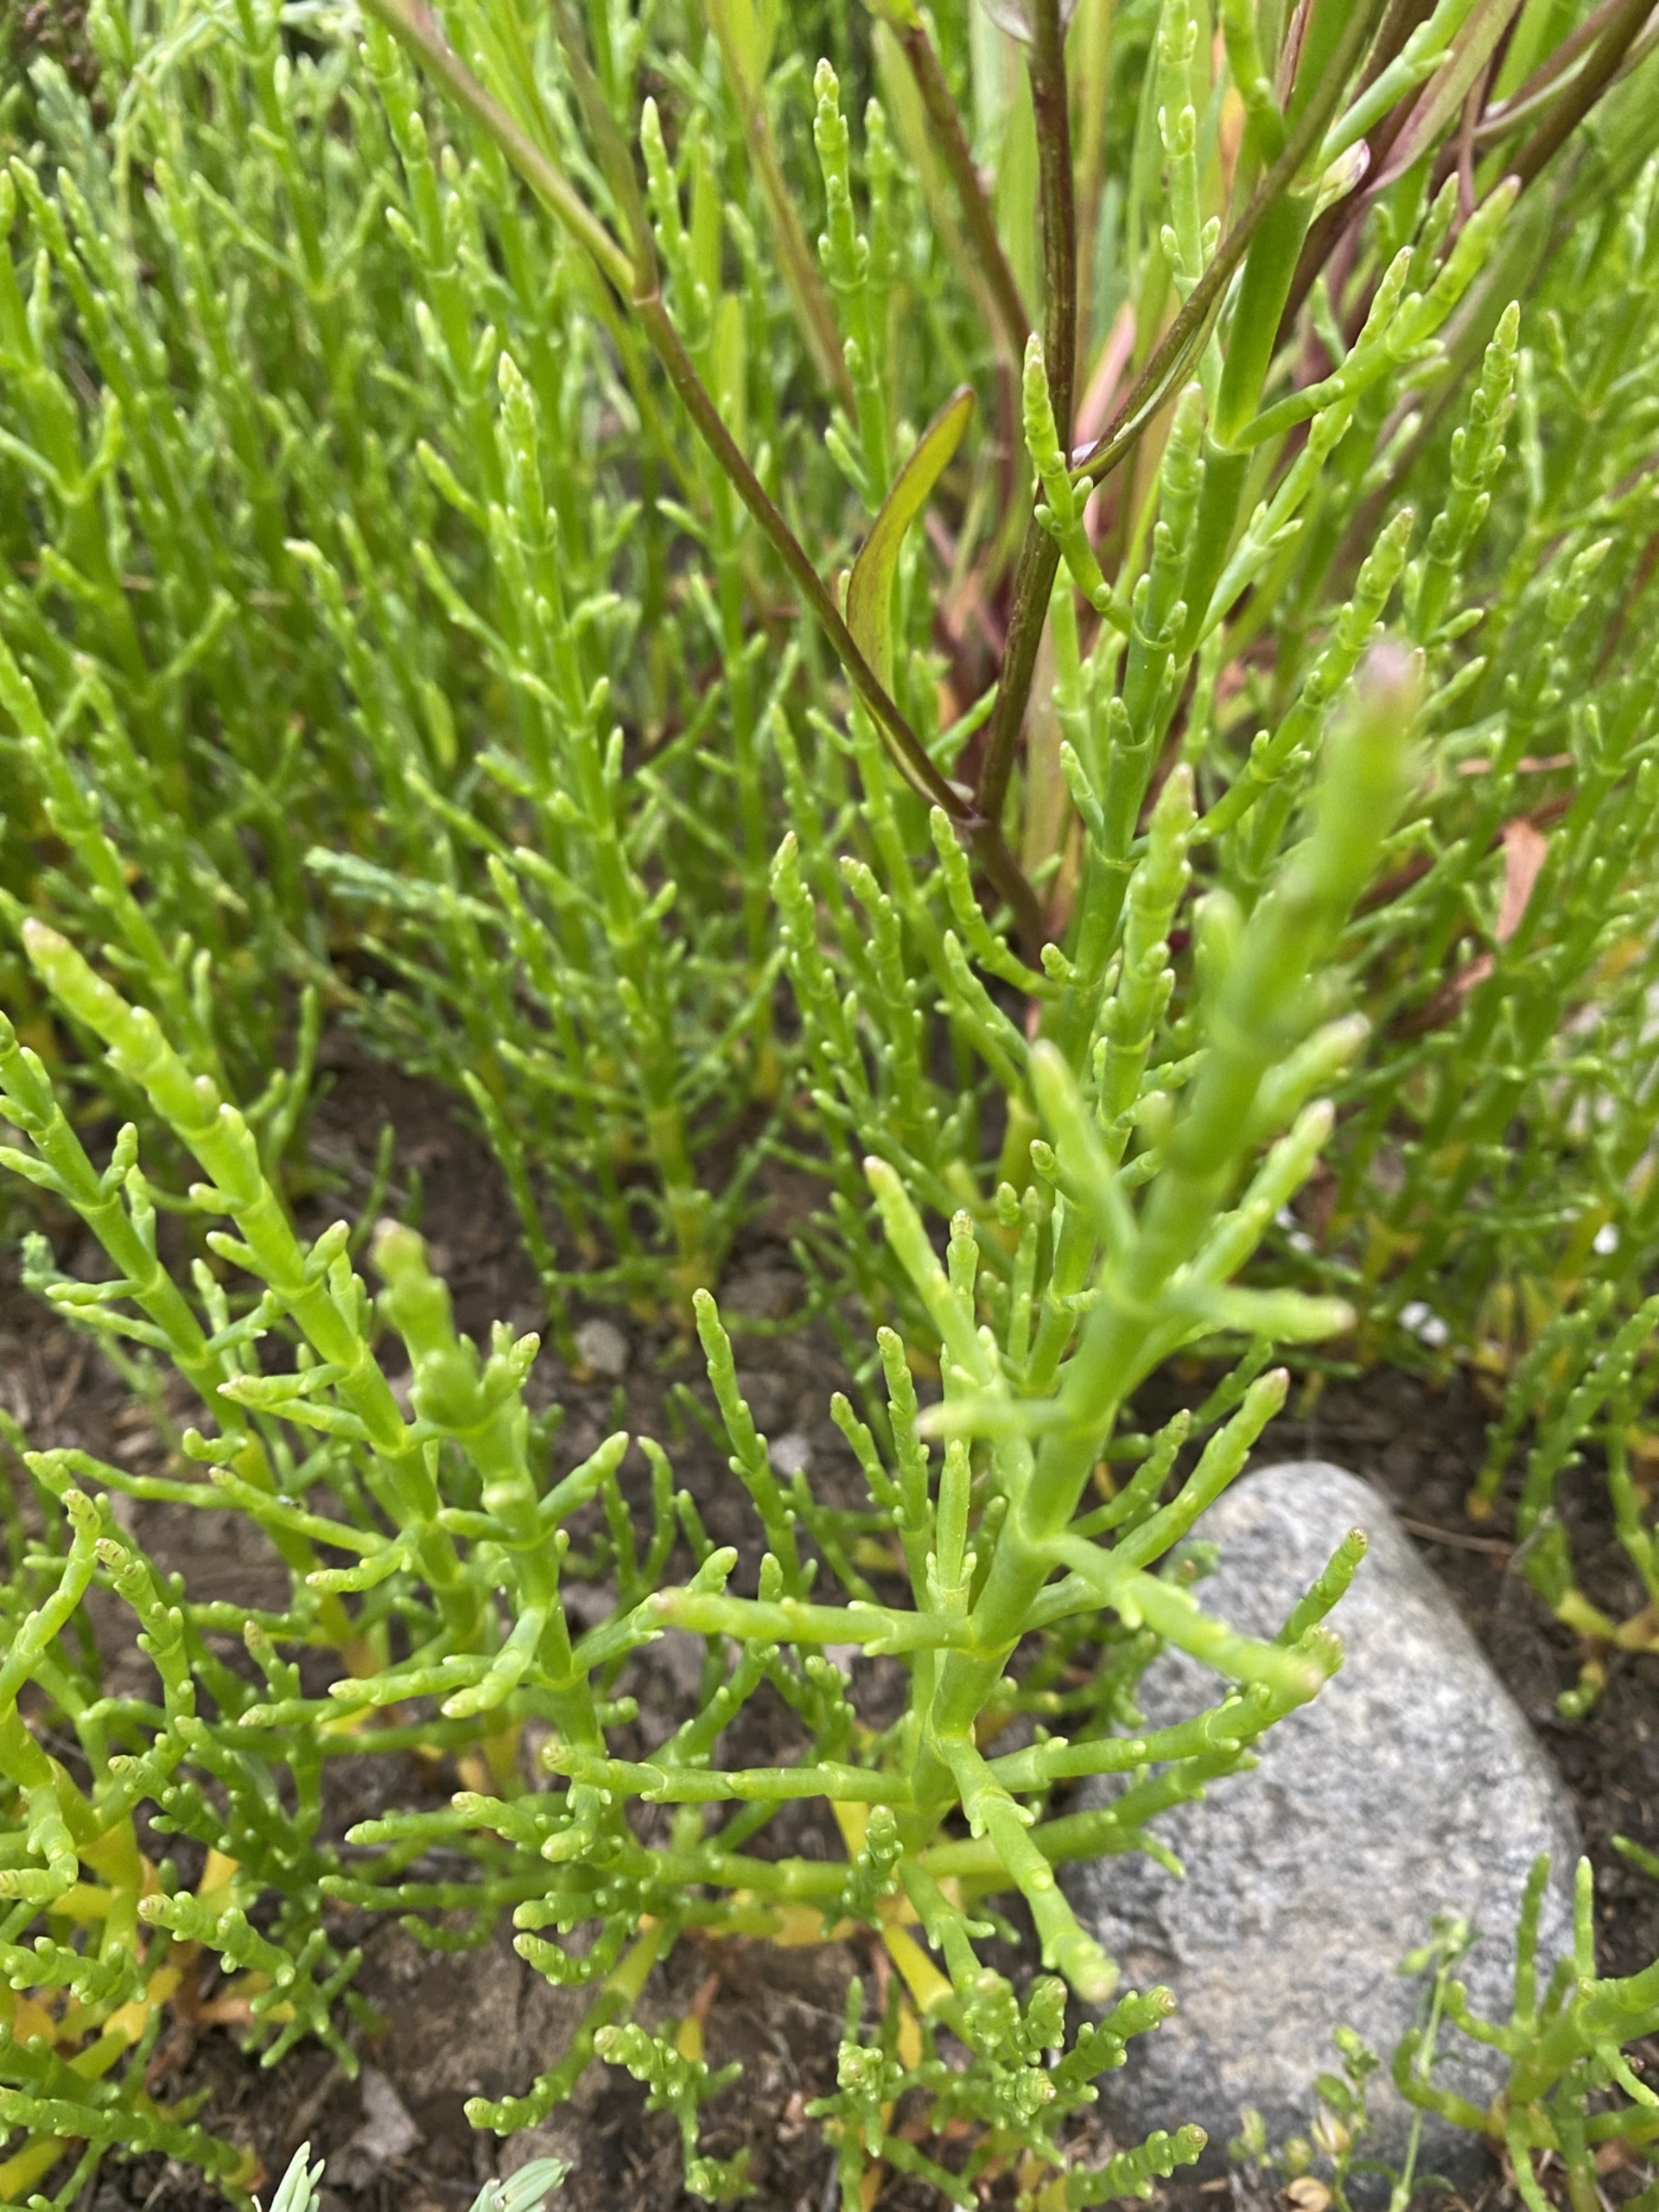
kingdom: Plantae
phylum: Tracheophyta
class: Magnoliopsida
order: Caryophyllales
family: Amaranthaceae
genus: Salicornia
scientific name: Salicornia europaea
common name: Almindelig salturt
